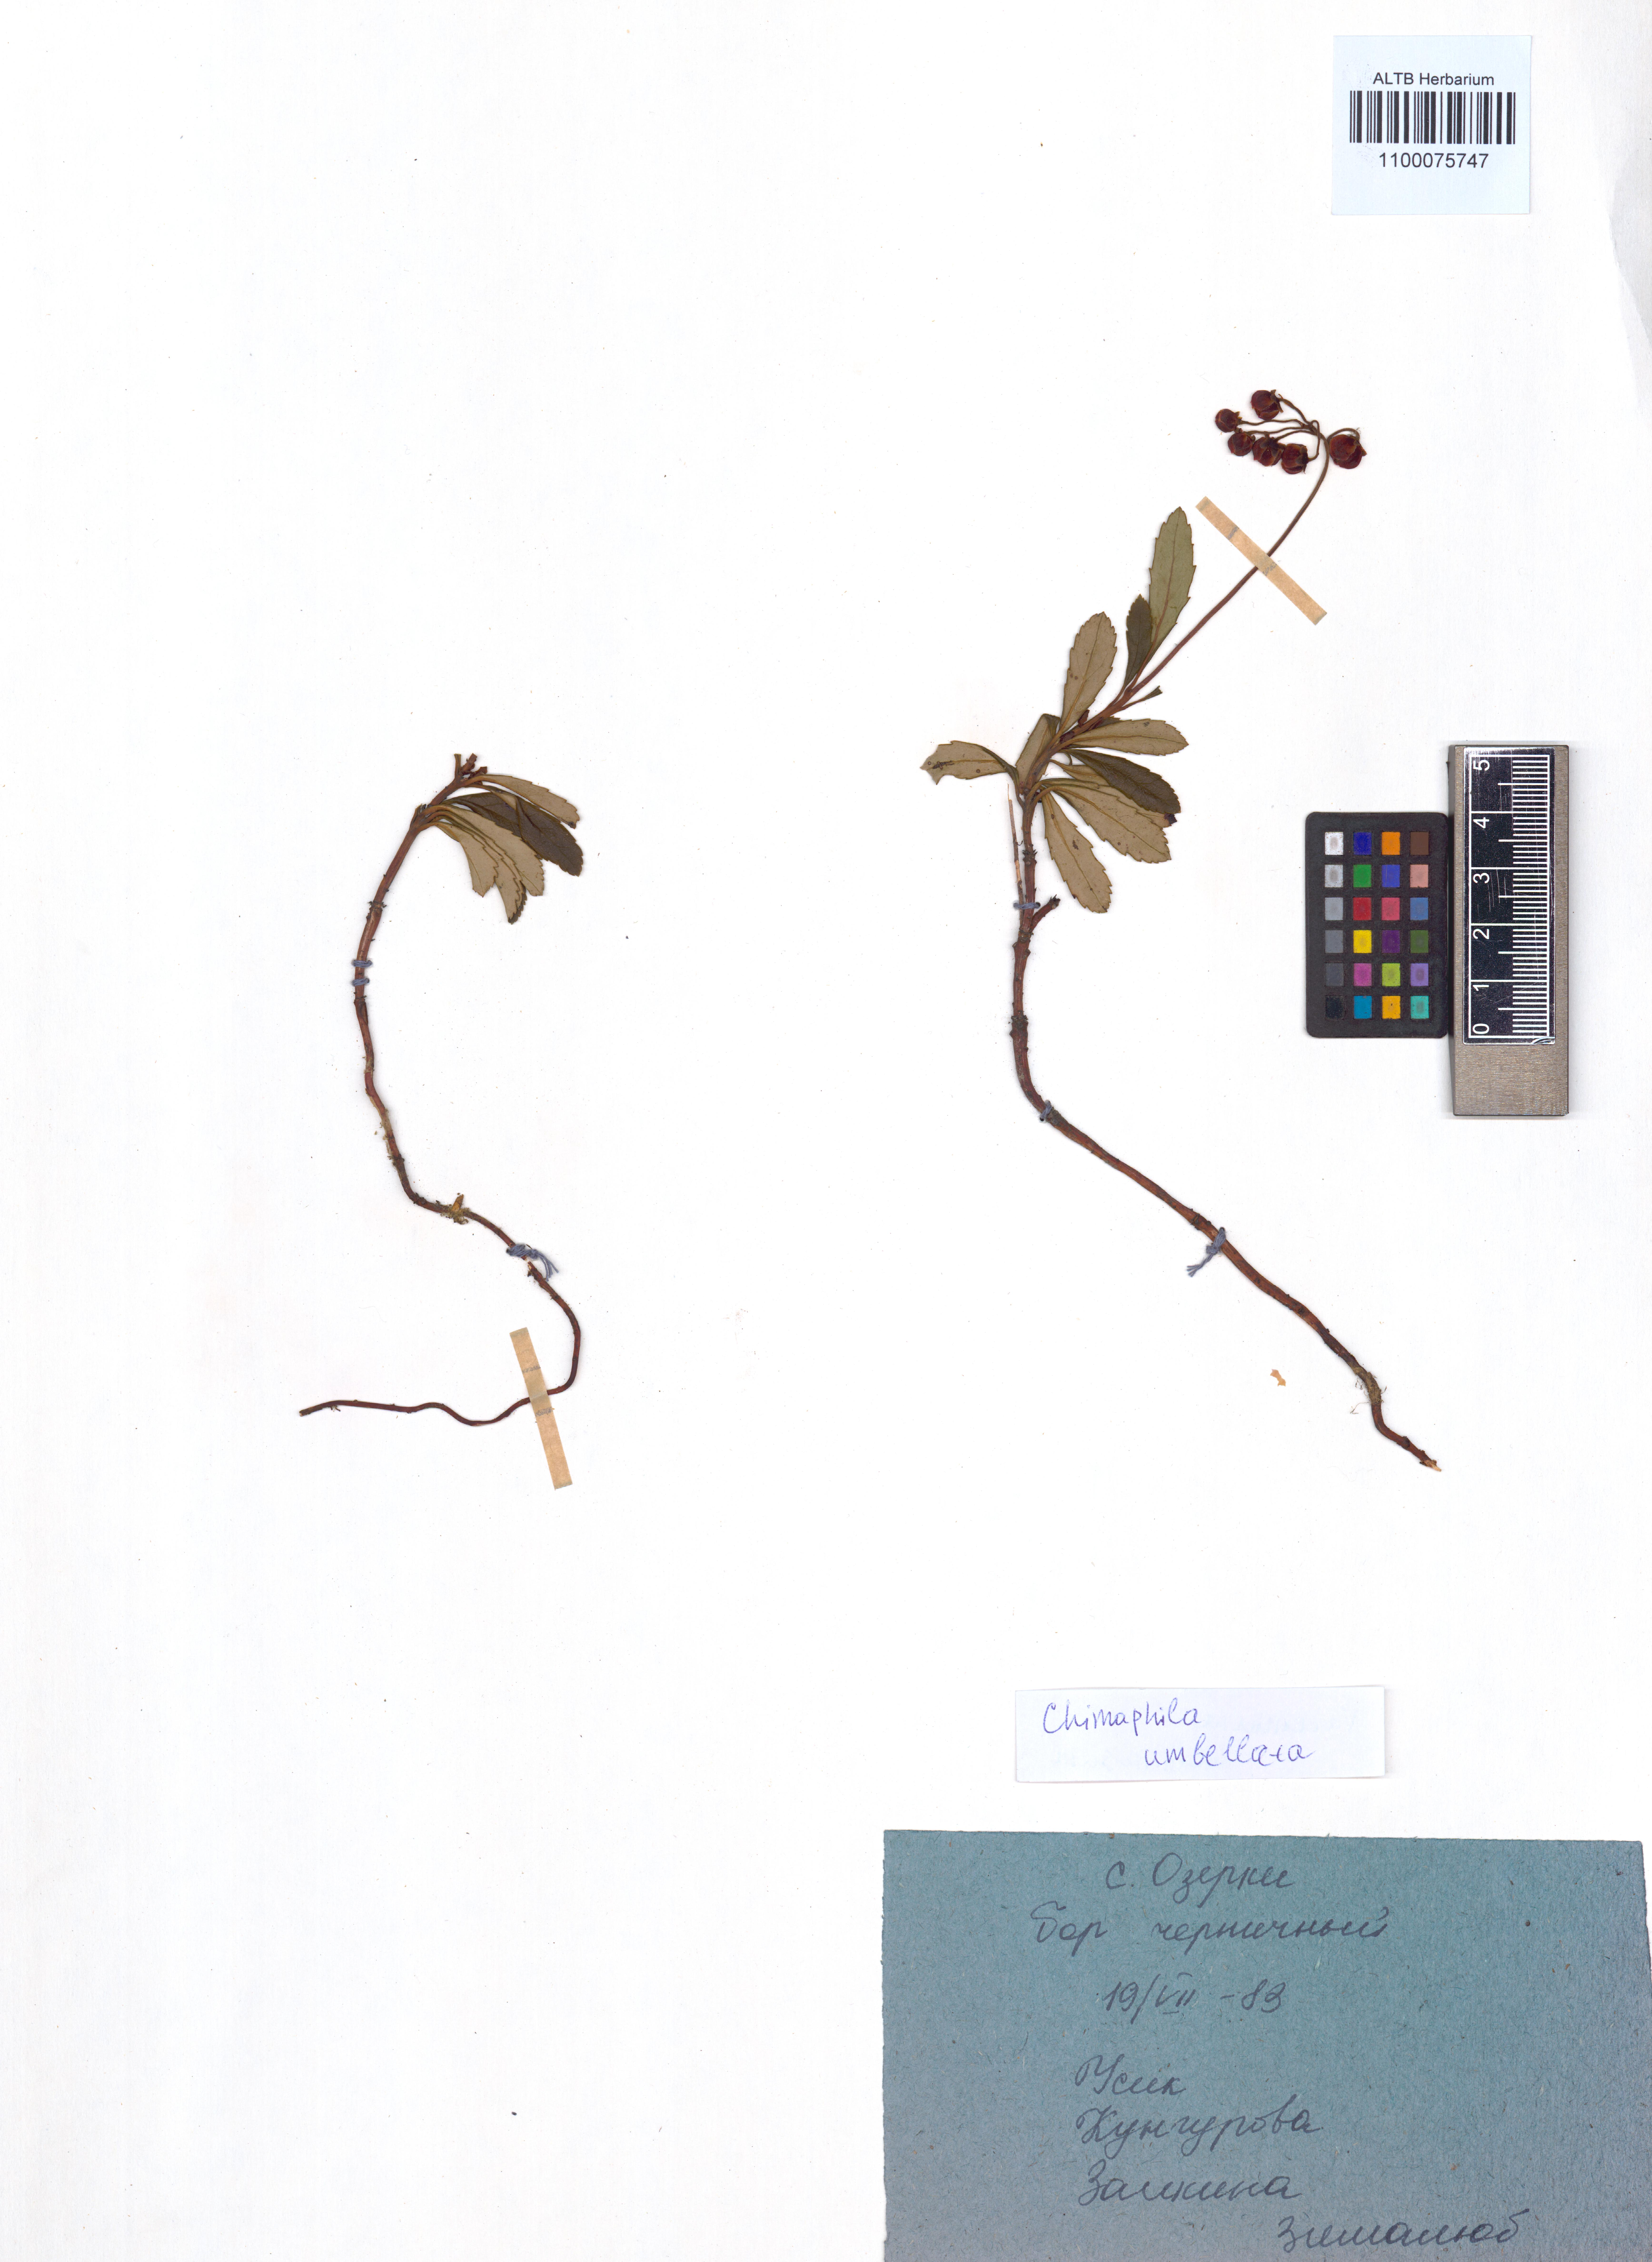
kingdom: Plantae
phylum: Tracheophyta
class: Magnoliopsida
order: Ericales
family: Ericaceae
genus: Chimaphila
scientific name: Chimaphila umbellata
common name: Pipsissewa
